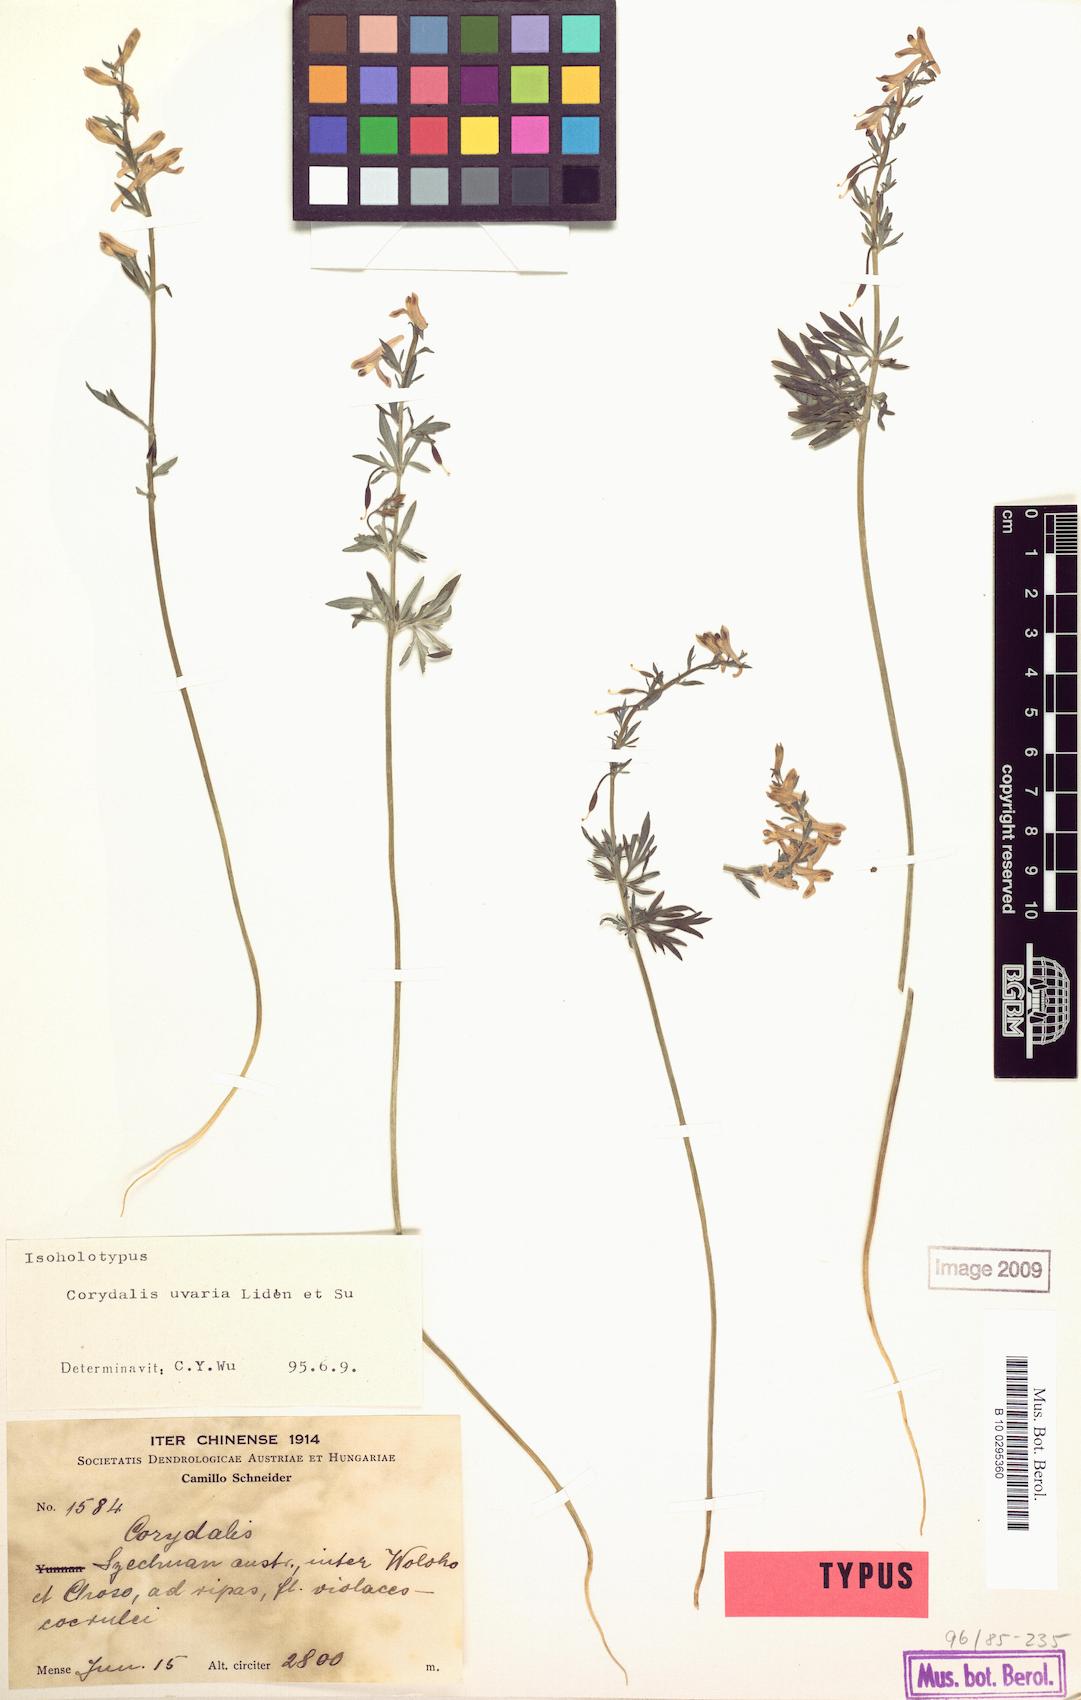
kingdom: Plantae
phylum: Tracheophyta
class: Magnoliopsida
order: Ranunculales
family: Papaveraceae
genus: Corydalis
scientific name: Corydalis uvaria
